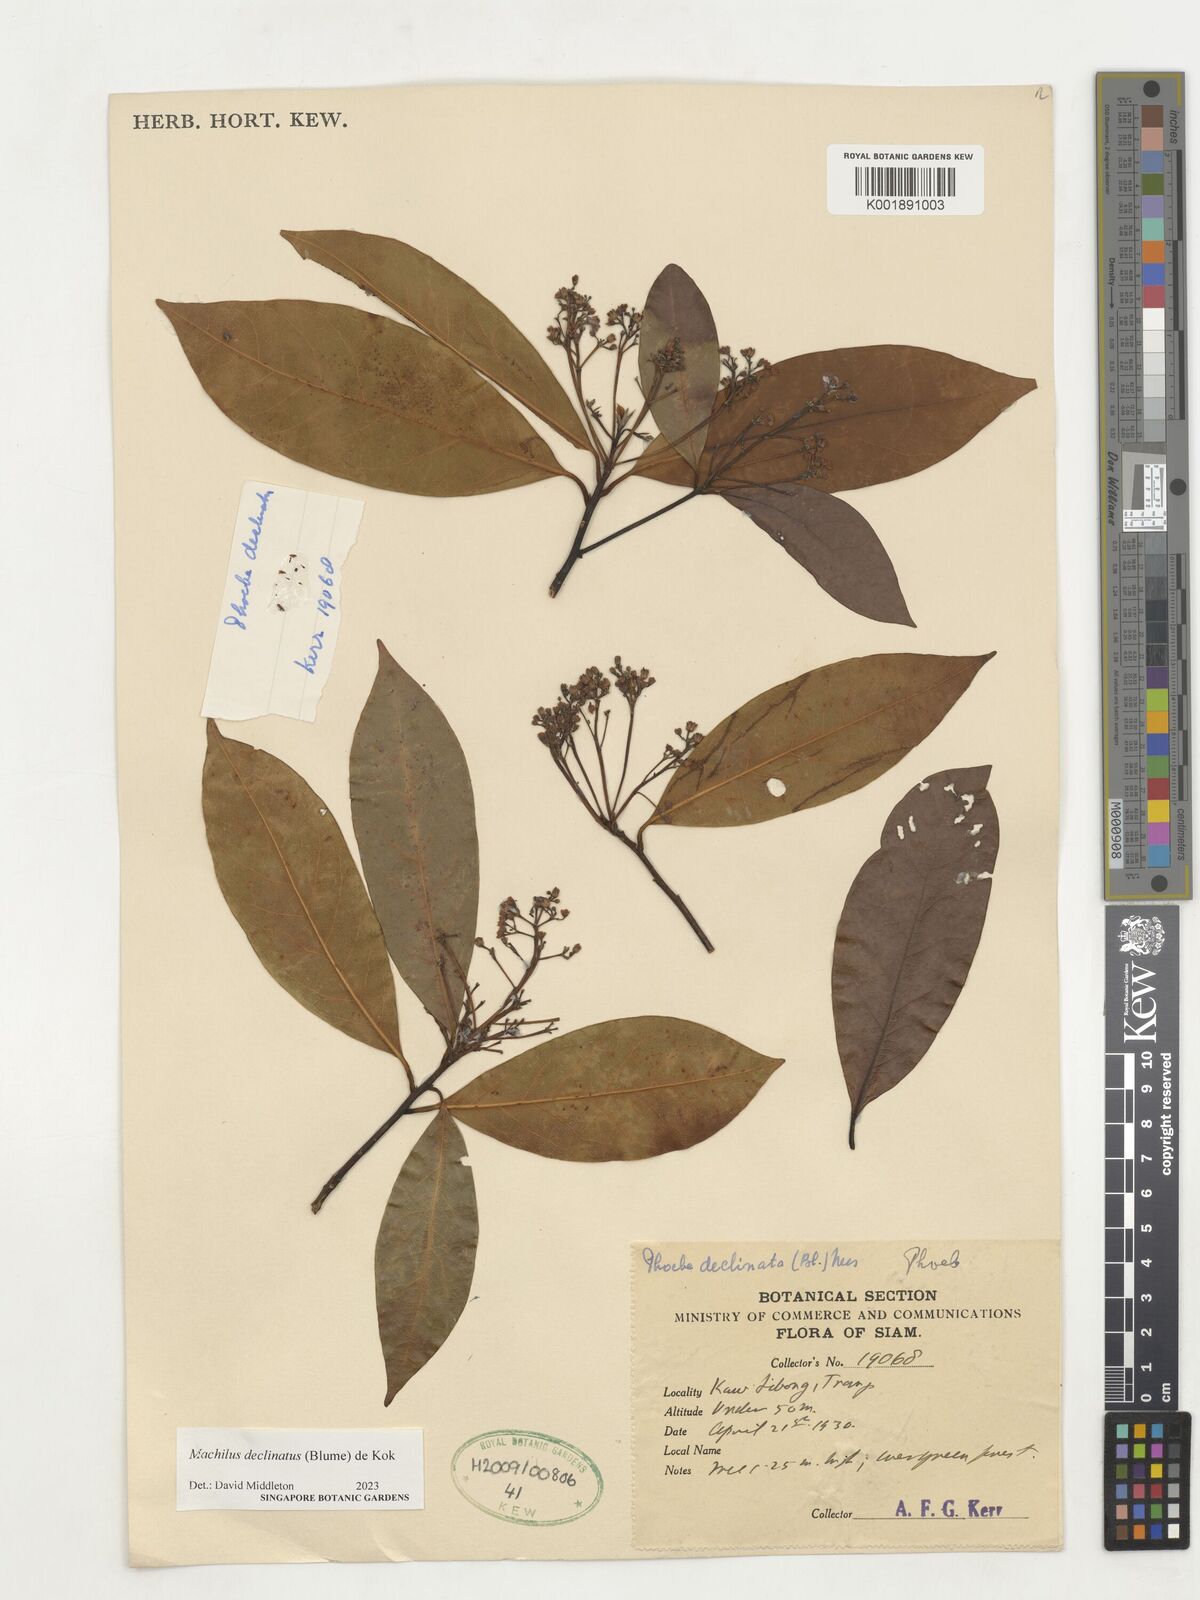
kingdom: Plantae
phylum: Tracheophyta
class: Magnoliopsida
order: Laurales
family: Lauraceae
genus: Machilus
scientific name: Machilus declinata
